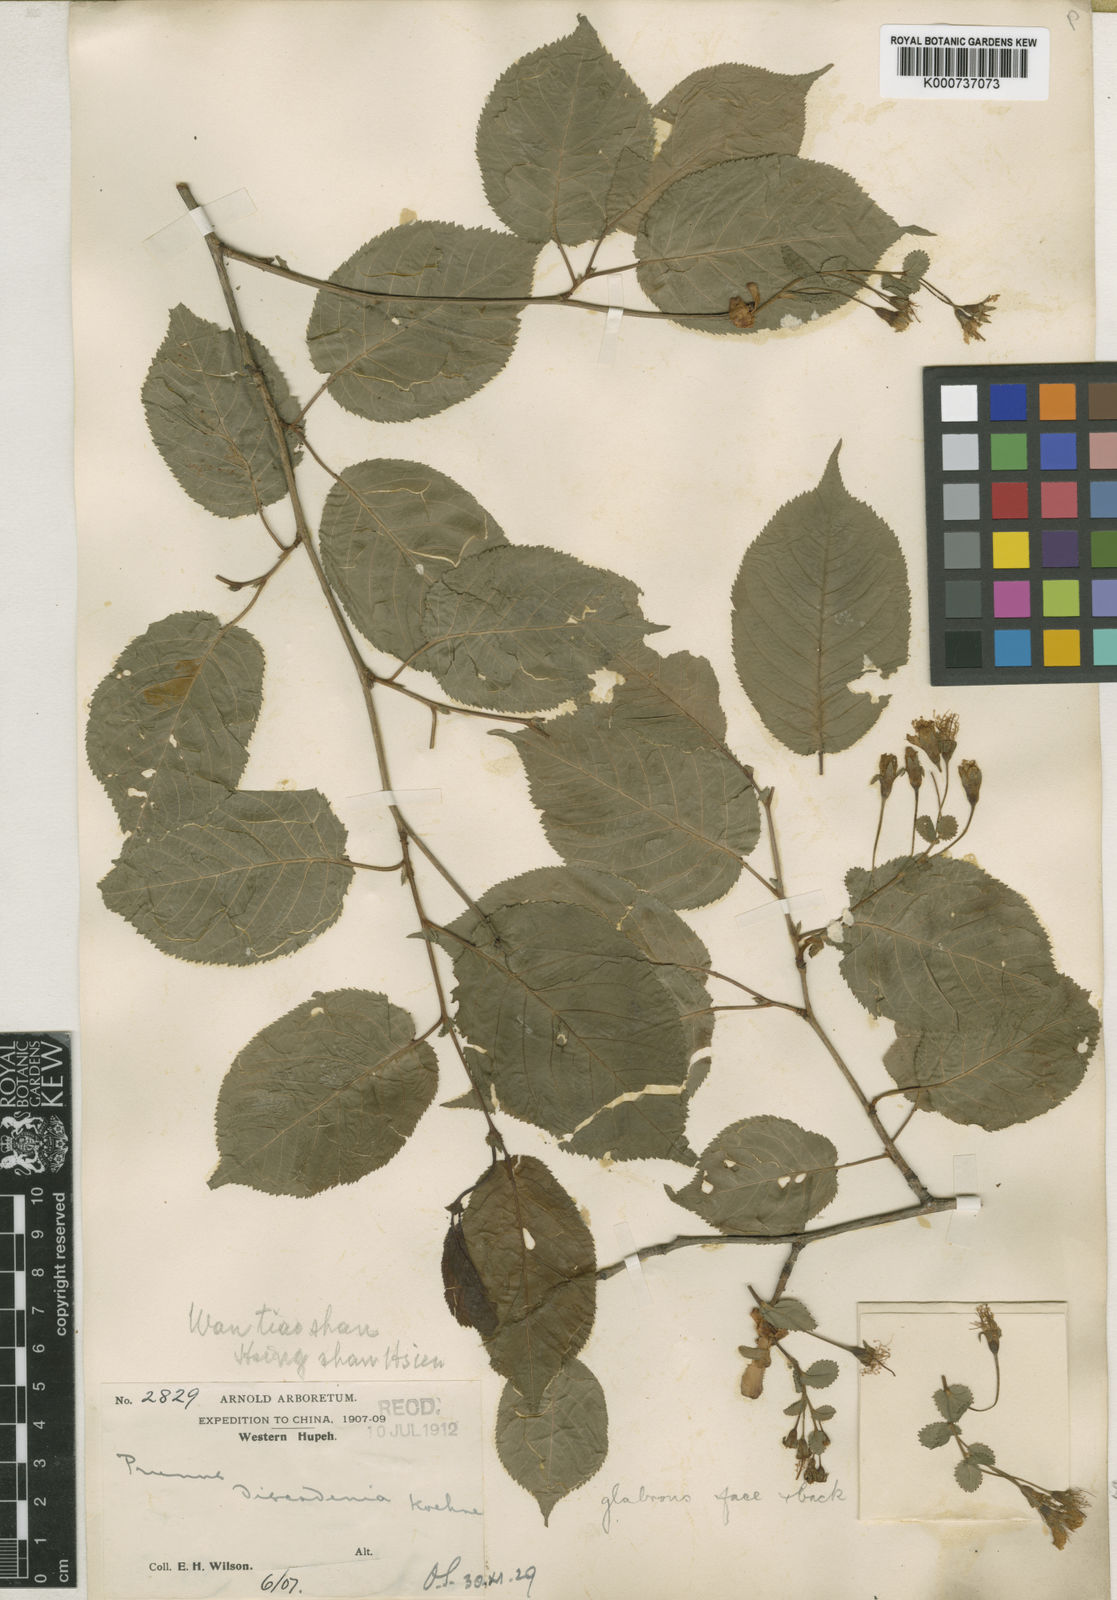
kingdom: Plantae
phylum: Tracheophyta
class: Magnoliopsida
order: Rosales
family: Rosaceae
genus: Prunus
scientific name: Prunus discadenia
